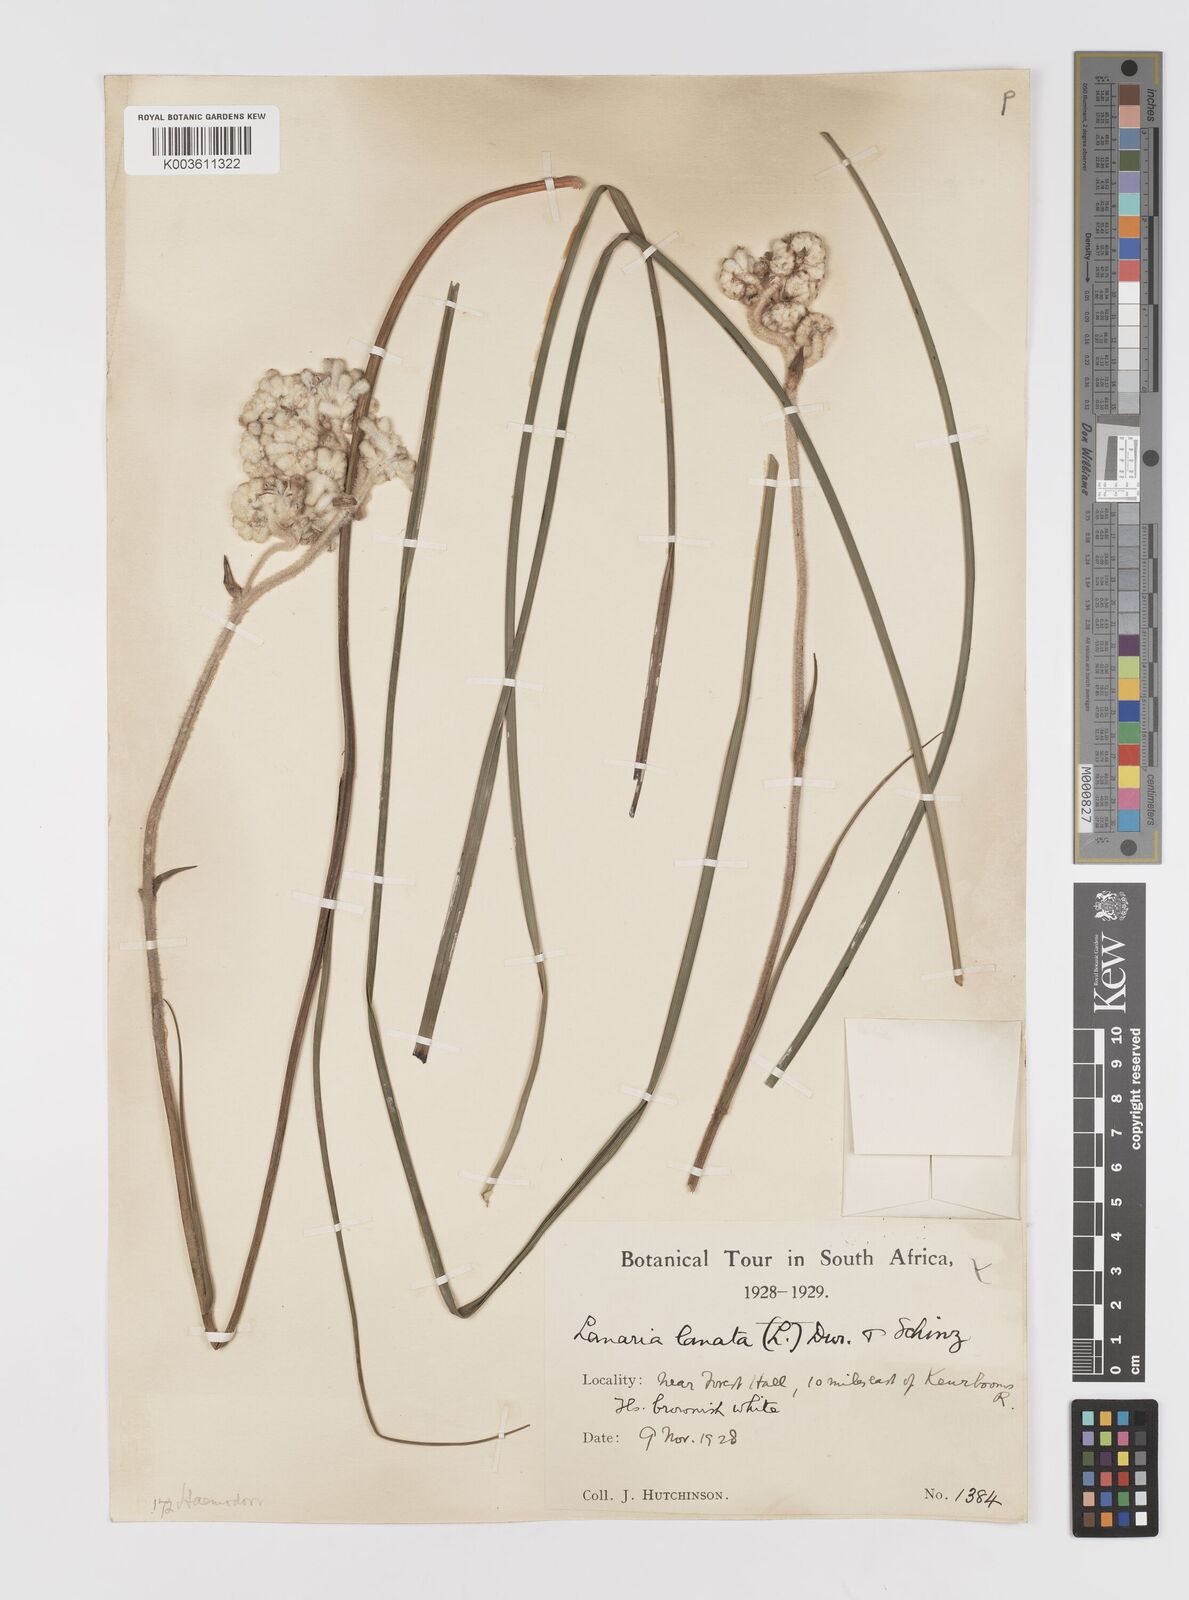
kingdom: Plantae
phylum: Tracheophyta
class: Liliopsida
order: Asparagales
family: Lanariaceae
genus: Lanaria
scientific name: Lanaria lanata
